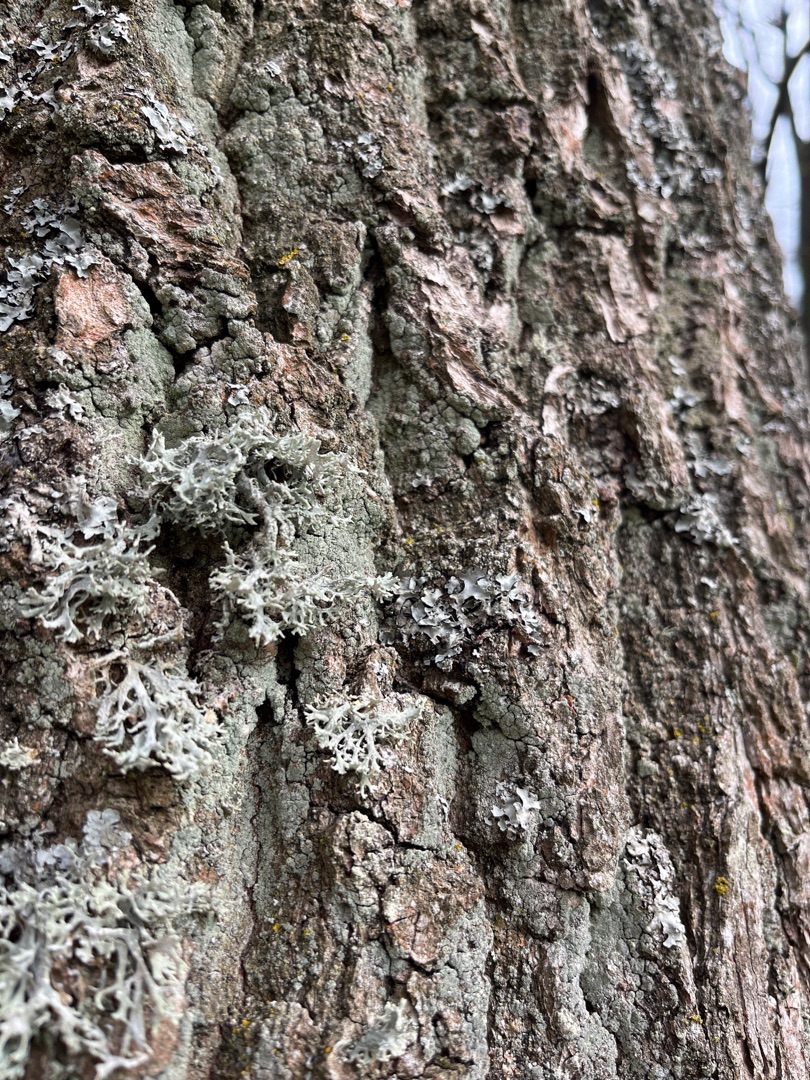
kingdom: Fungi
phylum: Ascomycota
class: Lecanoromycetes
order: Lecanorales
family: Parmeliaceae
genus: Evernia
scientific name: Evernia prunastri
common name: Almindelig slåenlav
